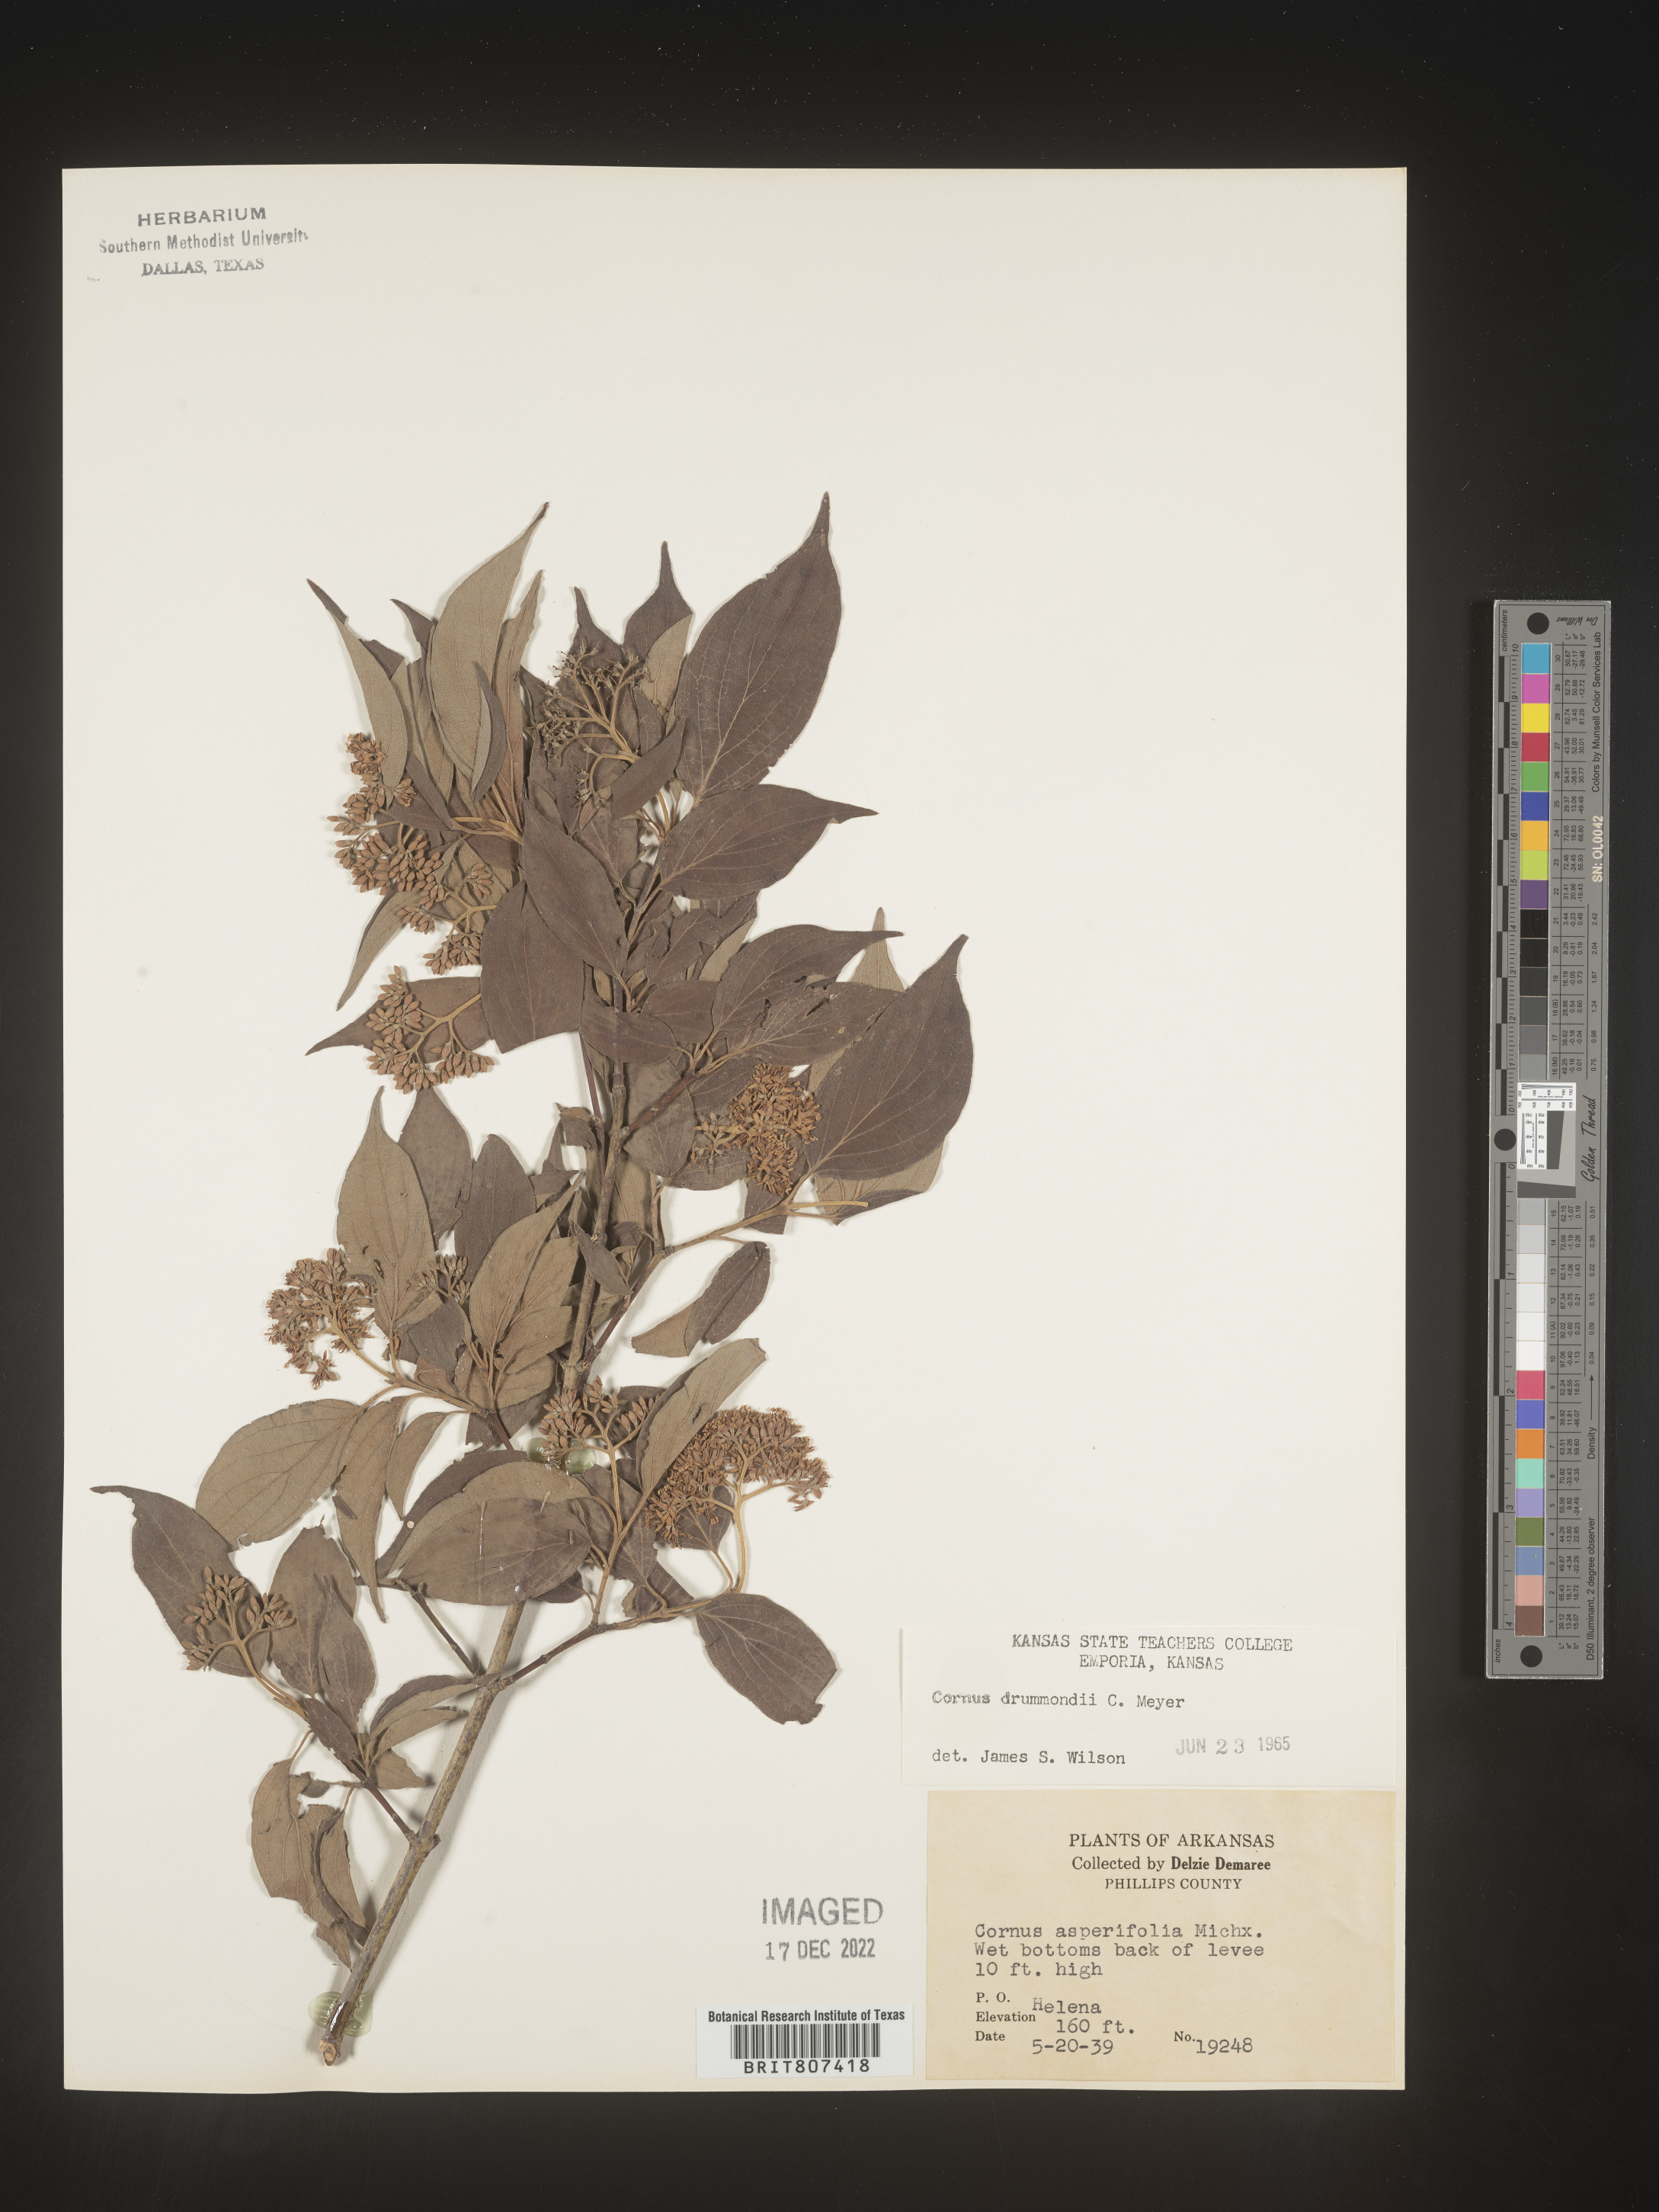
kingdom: Plantae
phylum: Tracheophyta
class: Magnoliopsida
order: Cornales
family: Cornaceae
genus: Cornus
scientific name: Cornus drummondii
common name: Rough-leaf dogwood
